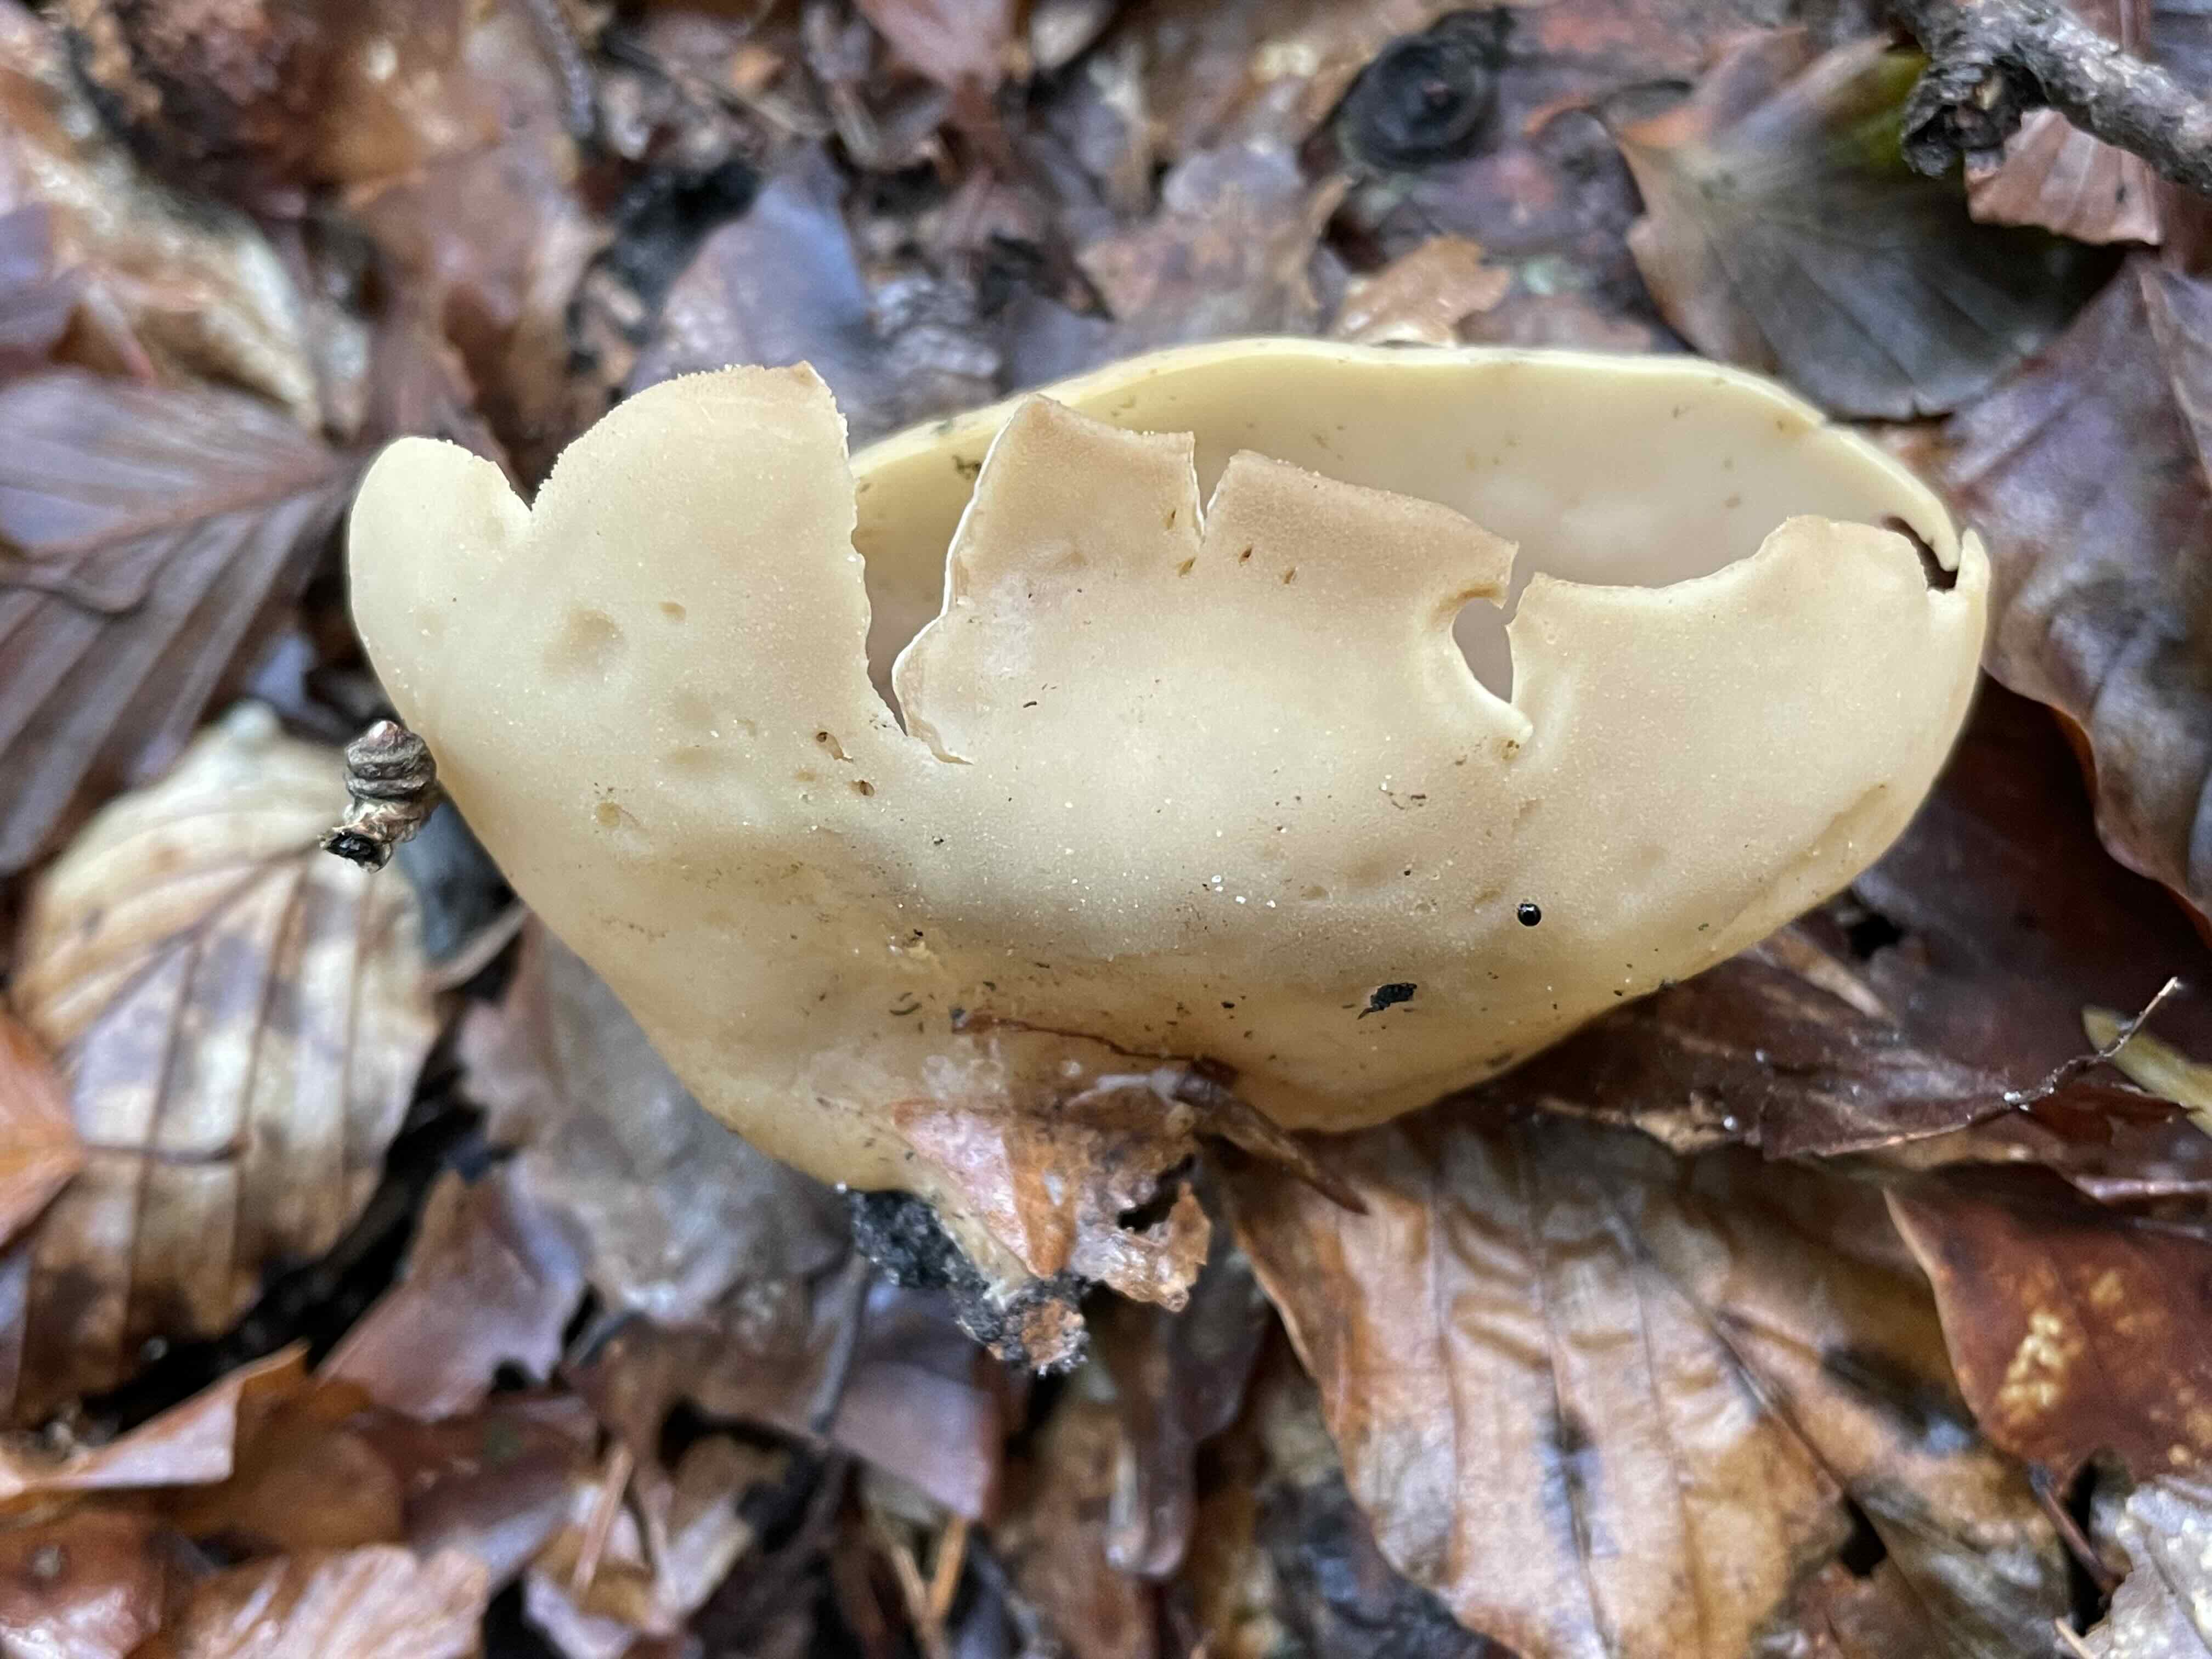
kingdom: Fungi
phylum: Ascomycota
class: Pezizomycetes
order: Pezizales
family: Otideaceae
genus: Otidea
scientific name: Otidea alutacea
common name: læder-ørebæger
